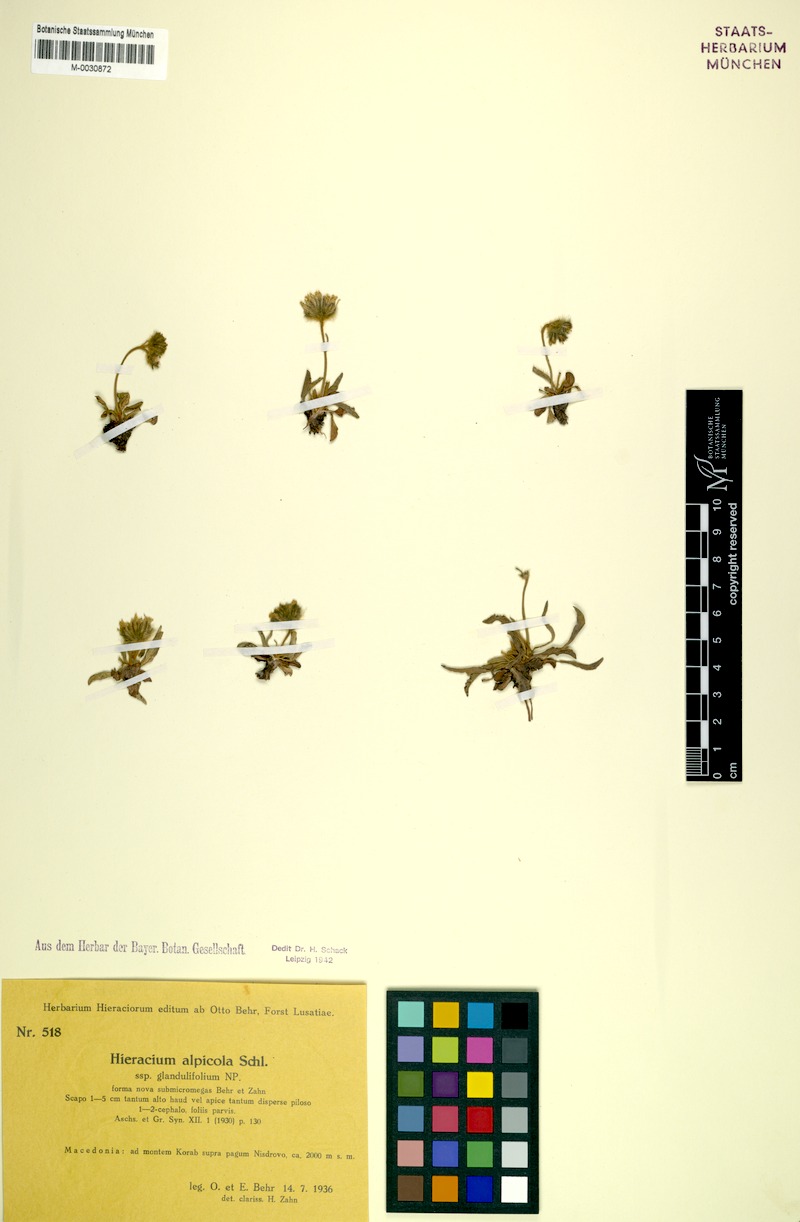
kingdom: Plantae
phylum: Tracheophyta
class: Magnoliopsida
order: Asterales
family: Asteraceae
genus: Pilosella
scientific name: Pilosella alpicola
